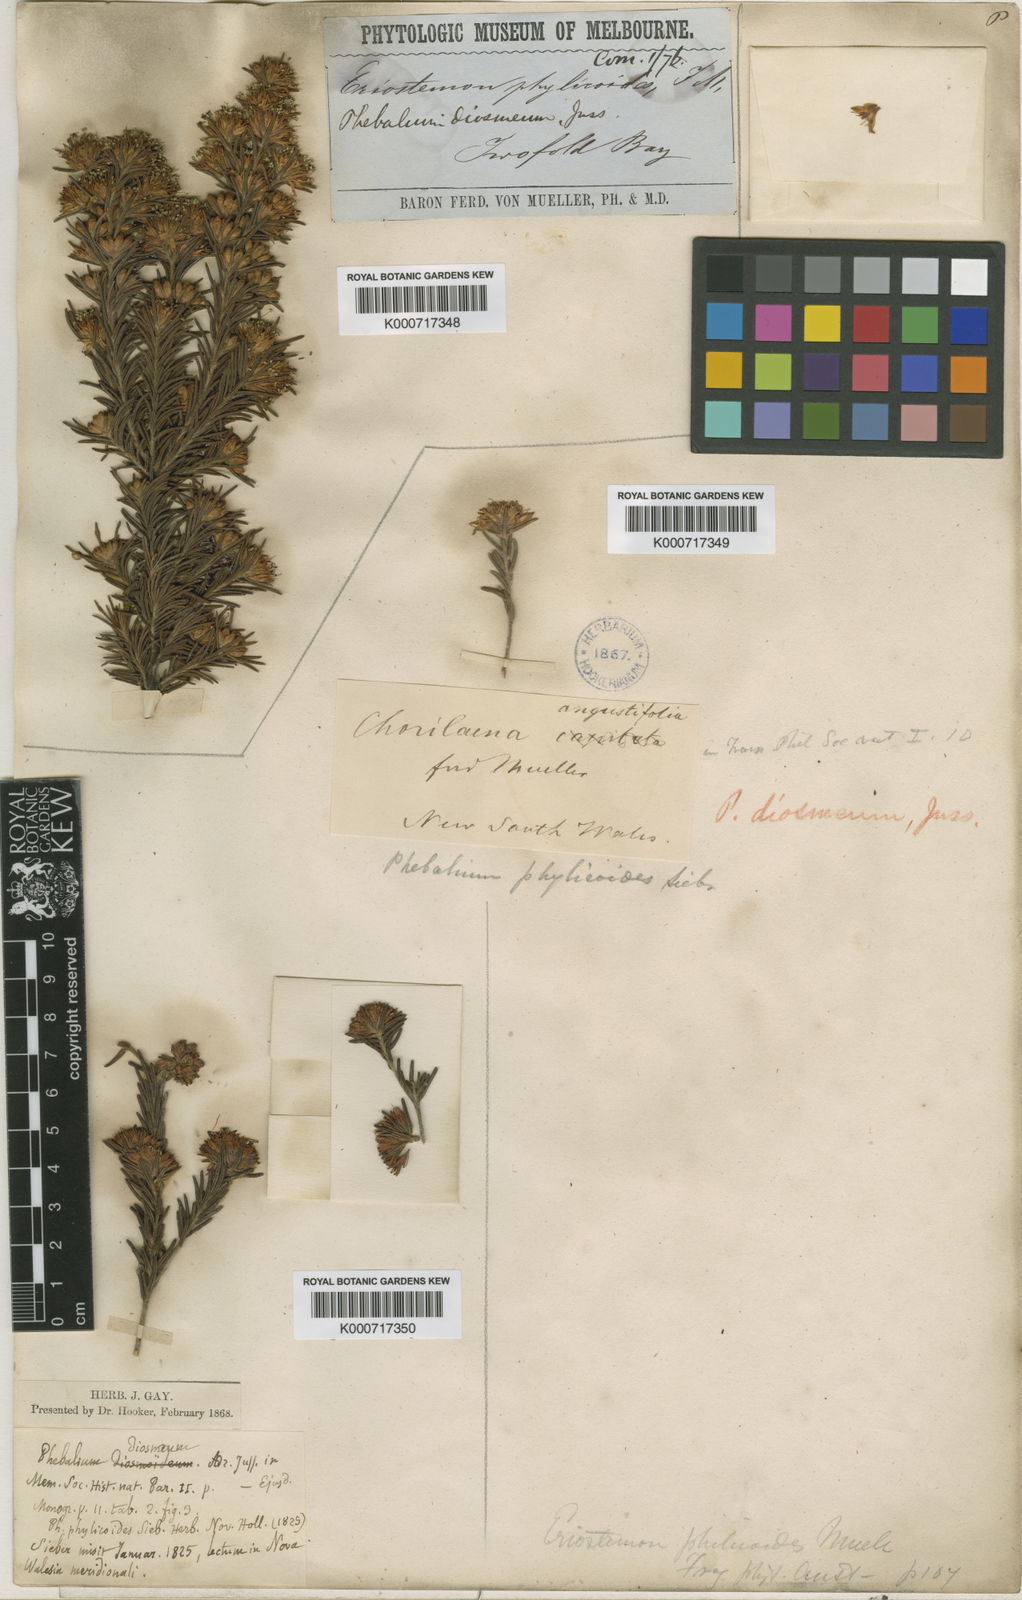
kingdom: Plantae
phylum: Tracheophyta
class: Magnoliopsida
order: Sapindales
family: Rutaceae
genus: Leionema
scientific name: Leionema diosmeum
